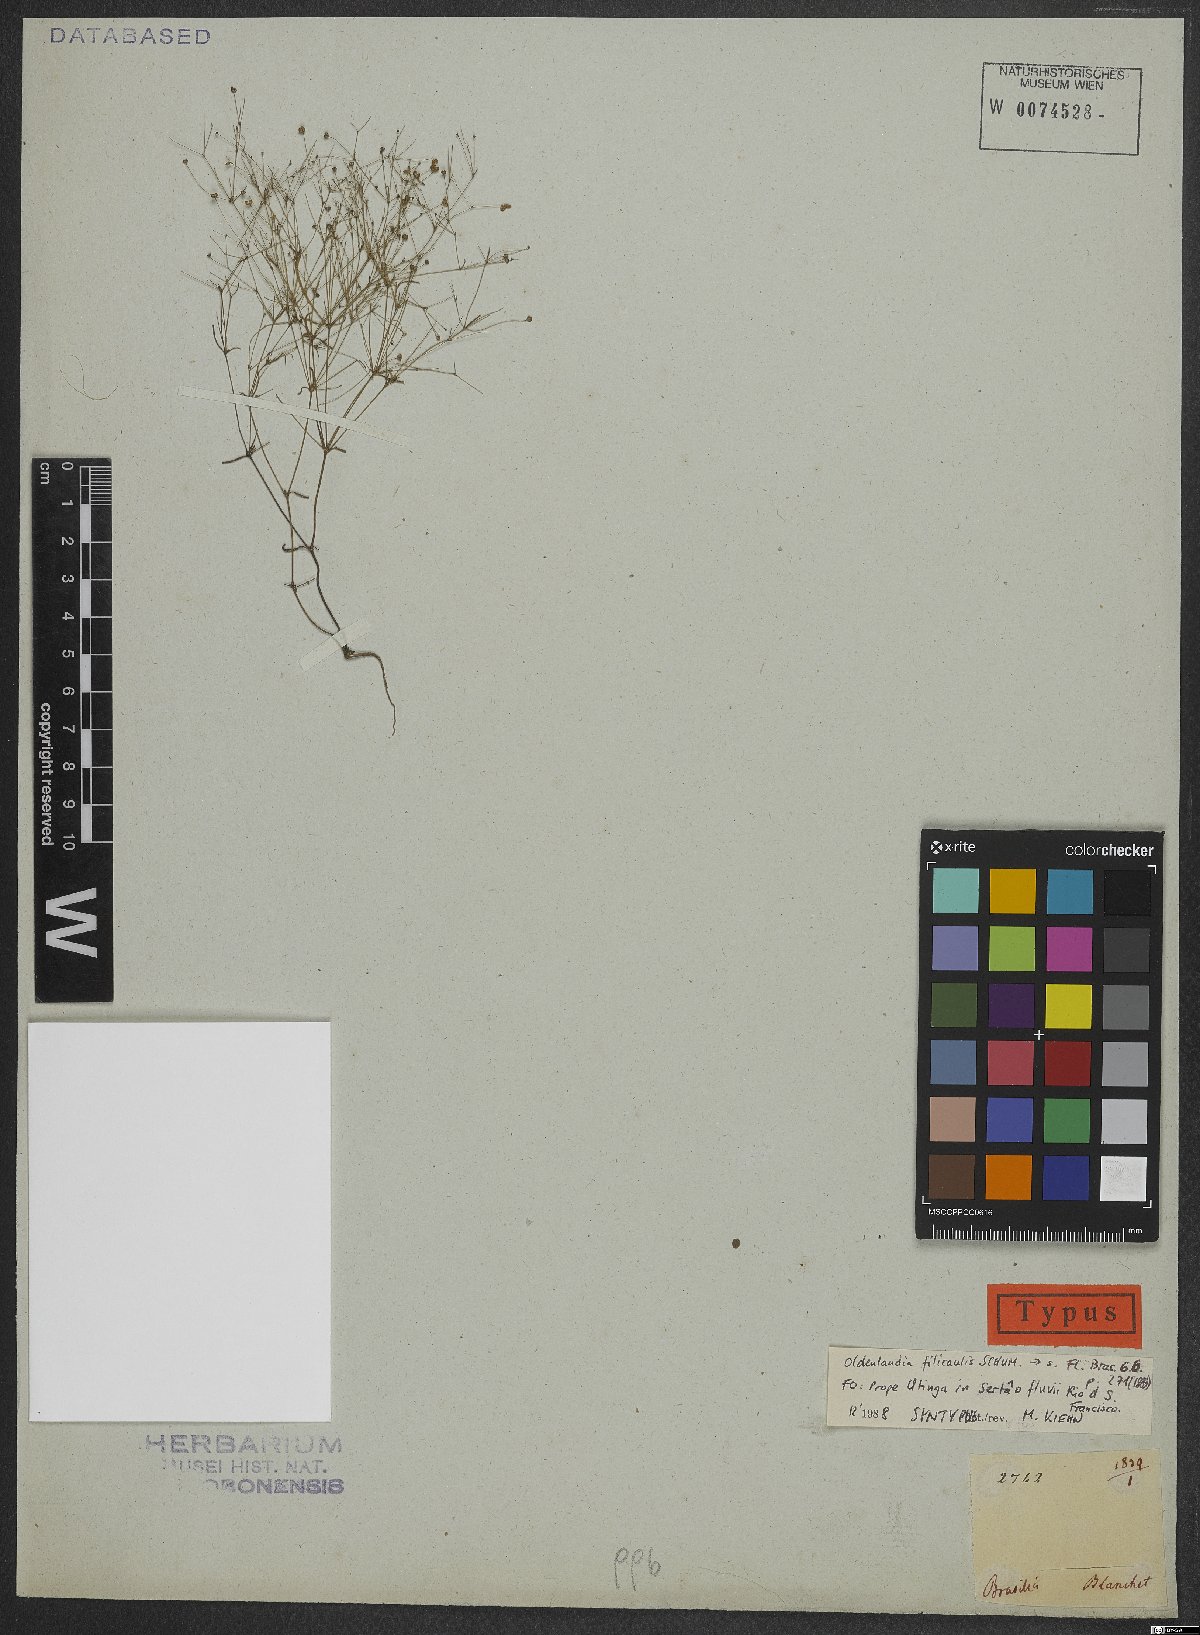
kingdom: Plantae
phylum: Tracheophyta
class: Magnoliopsida
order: Gentianales
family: Rubiaceae
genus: Oldenlandia
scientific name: Oldenlandia filicaulis
